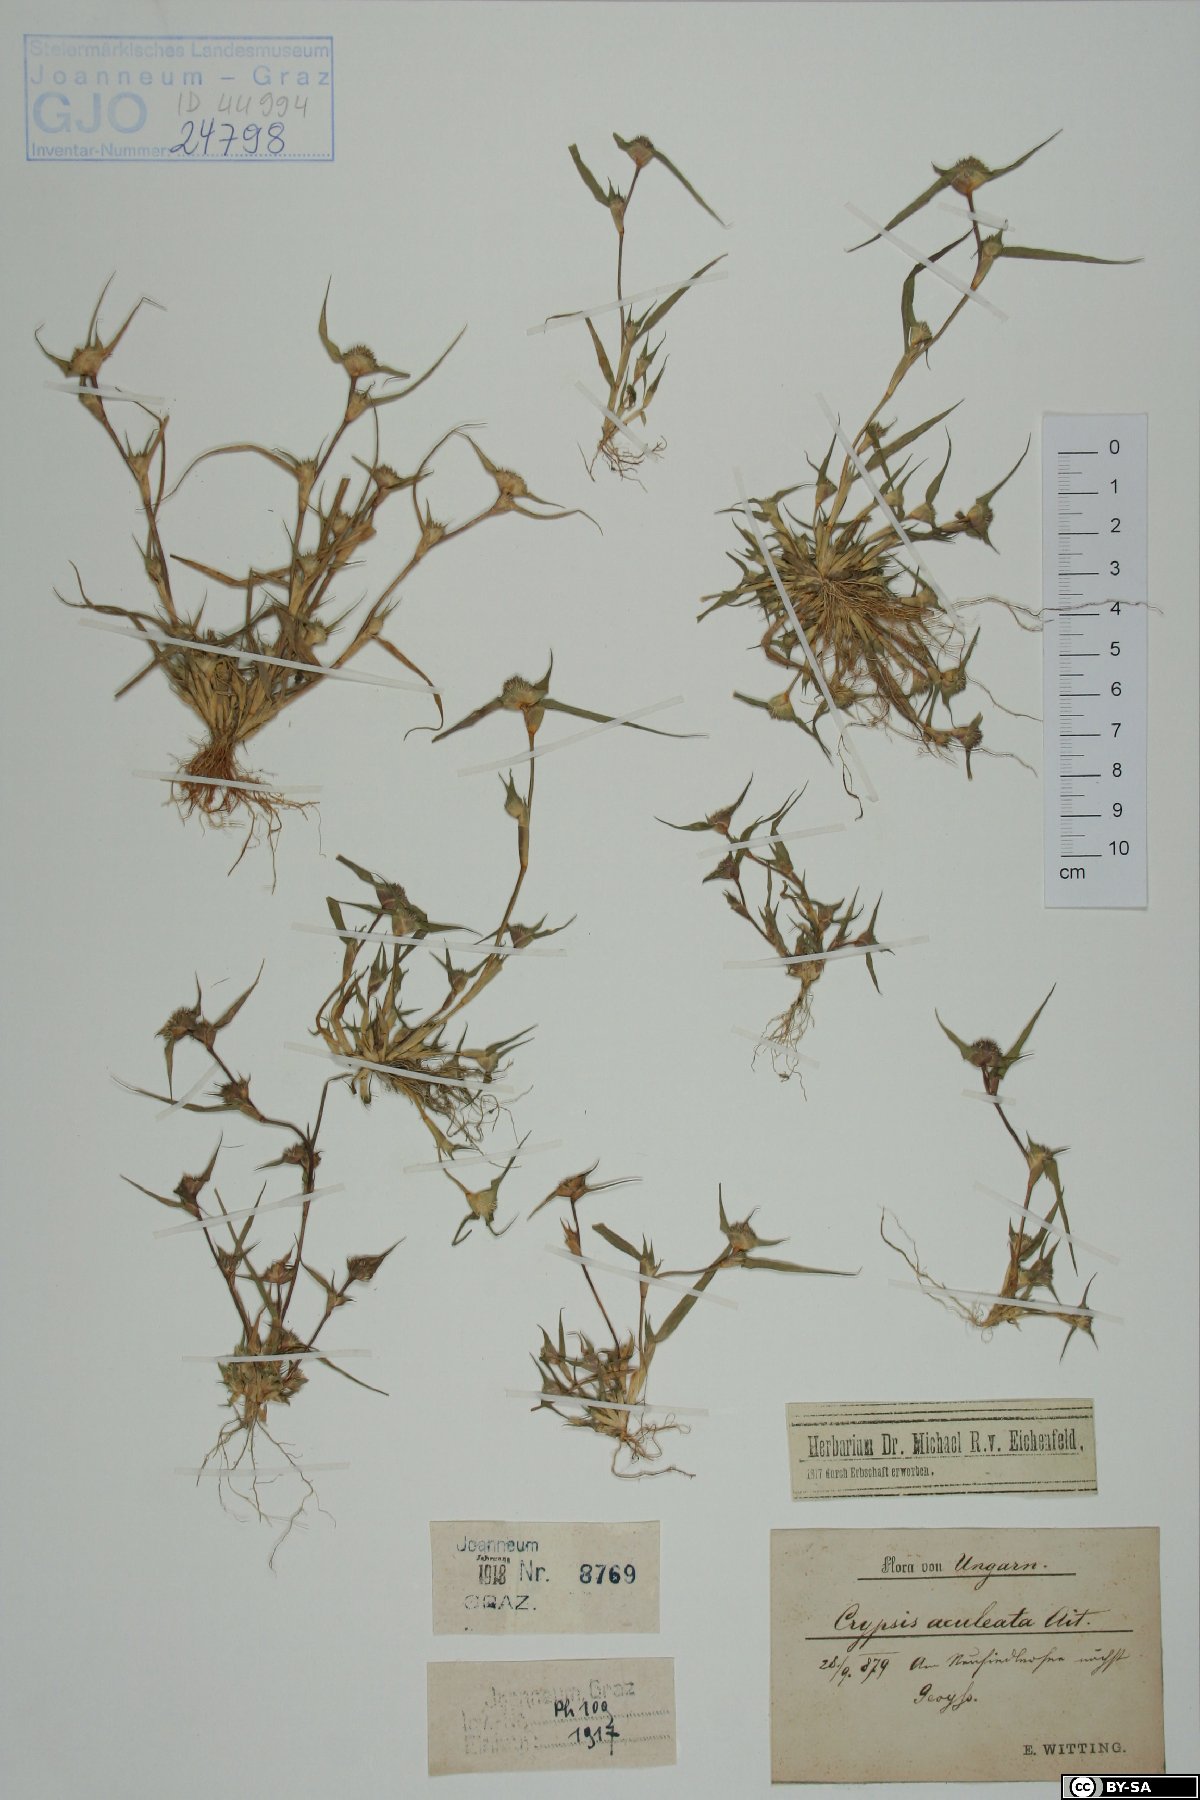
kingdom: Plantae
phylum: Tracheophyta
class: Liliopsida
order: Poales
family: Poaceae
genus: Sporobolus
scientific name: Sporobolus aculeatus
